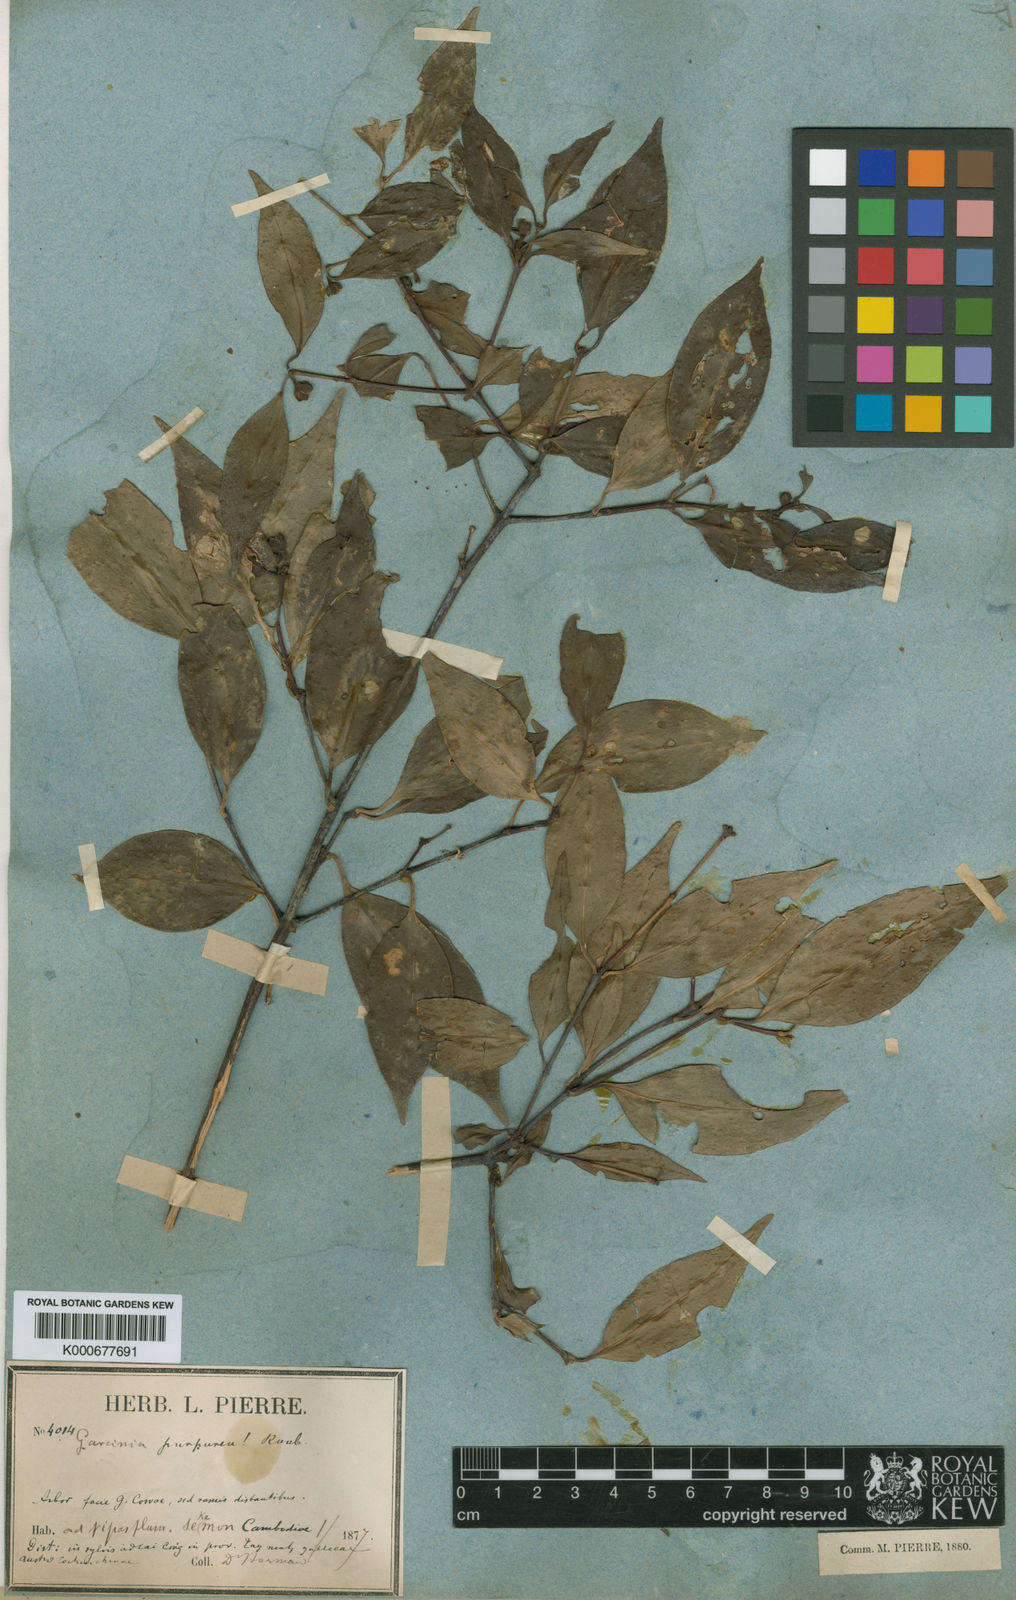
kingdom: Plantae
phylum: Tracheophyta
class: Magnoliopsida
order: Malpighiales
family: Clusiaceae
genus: Garcinia
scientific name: Garcinia lanceifolia
